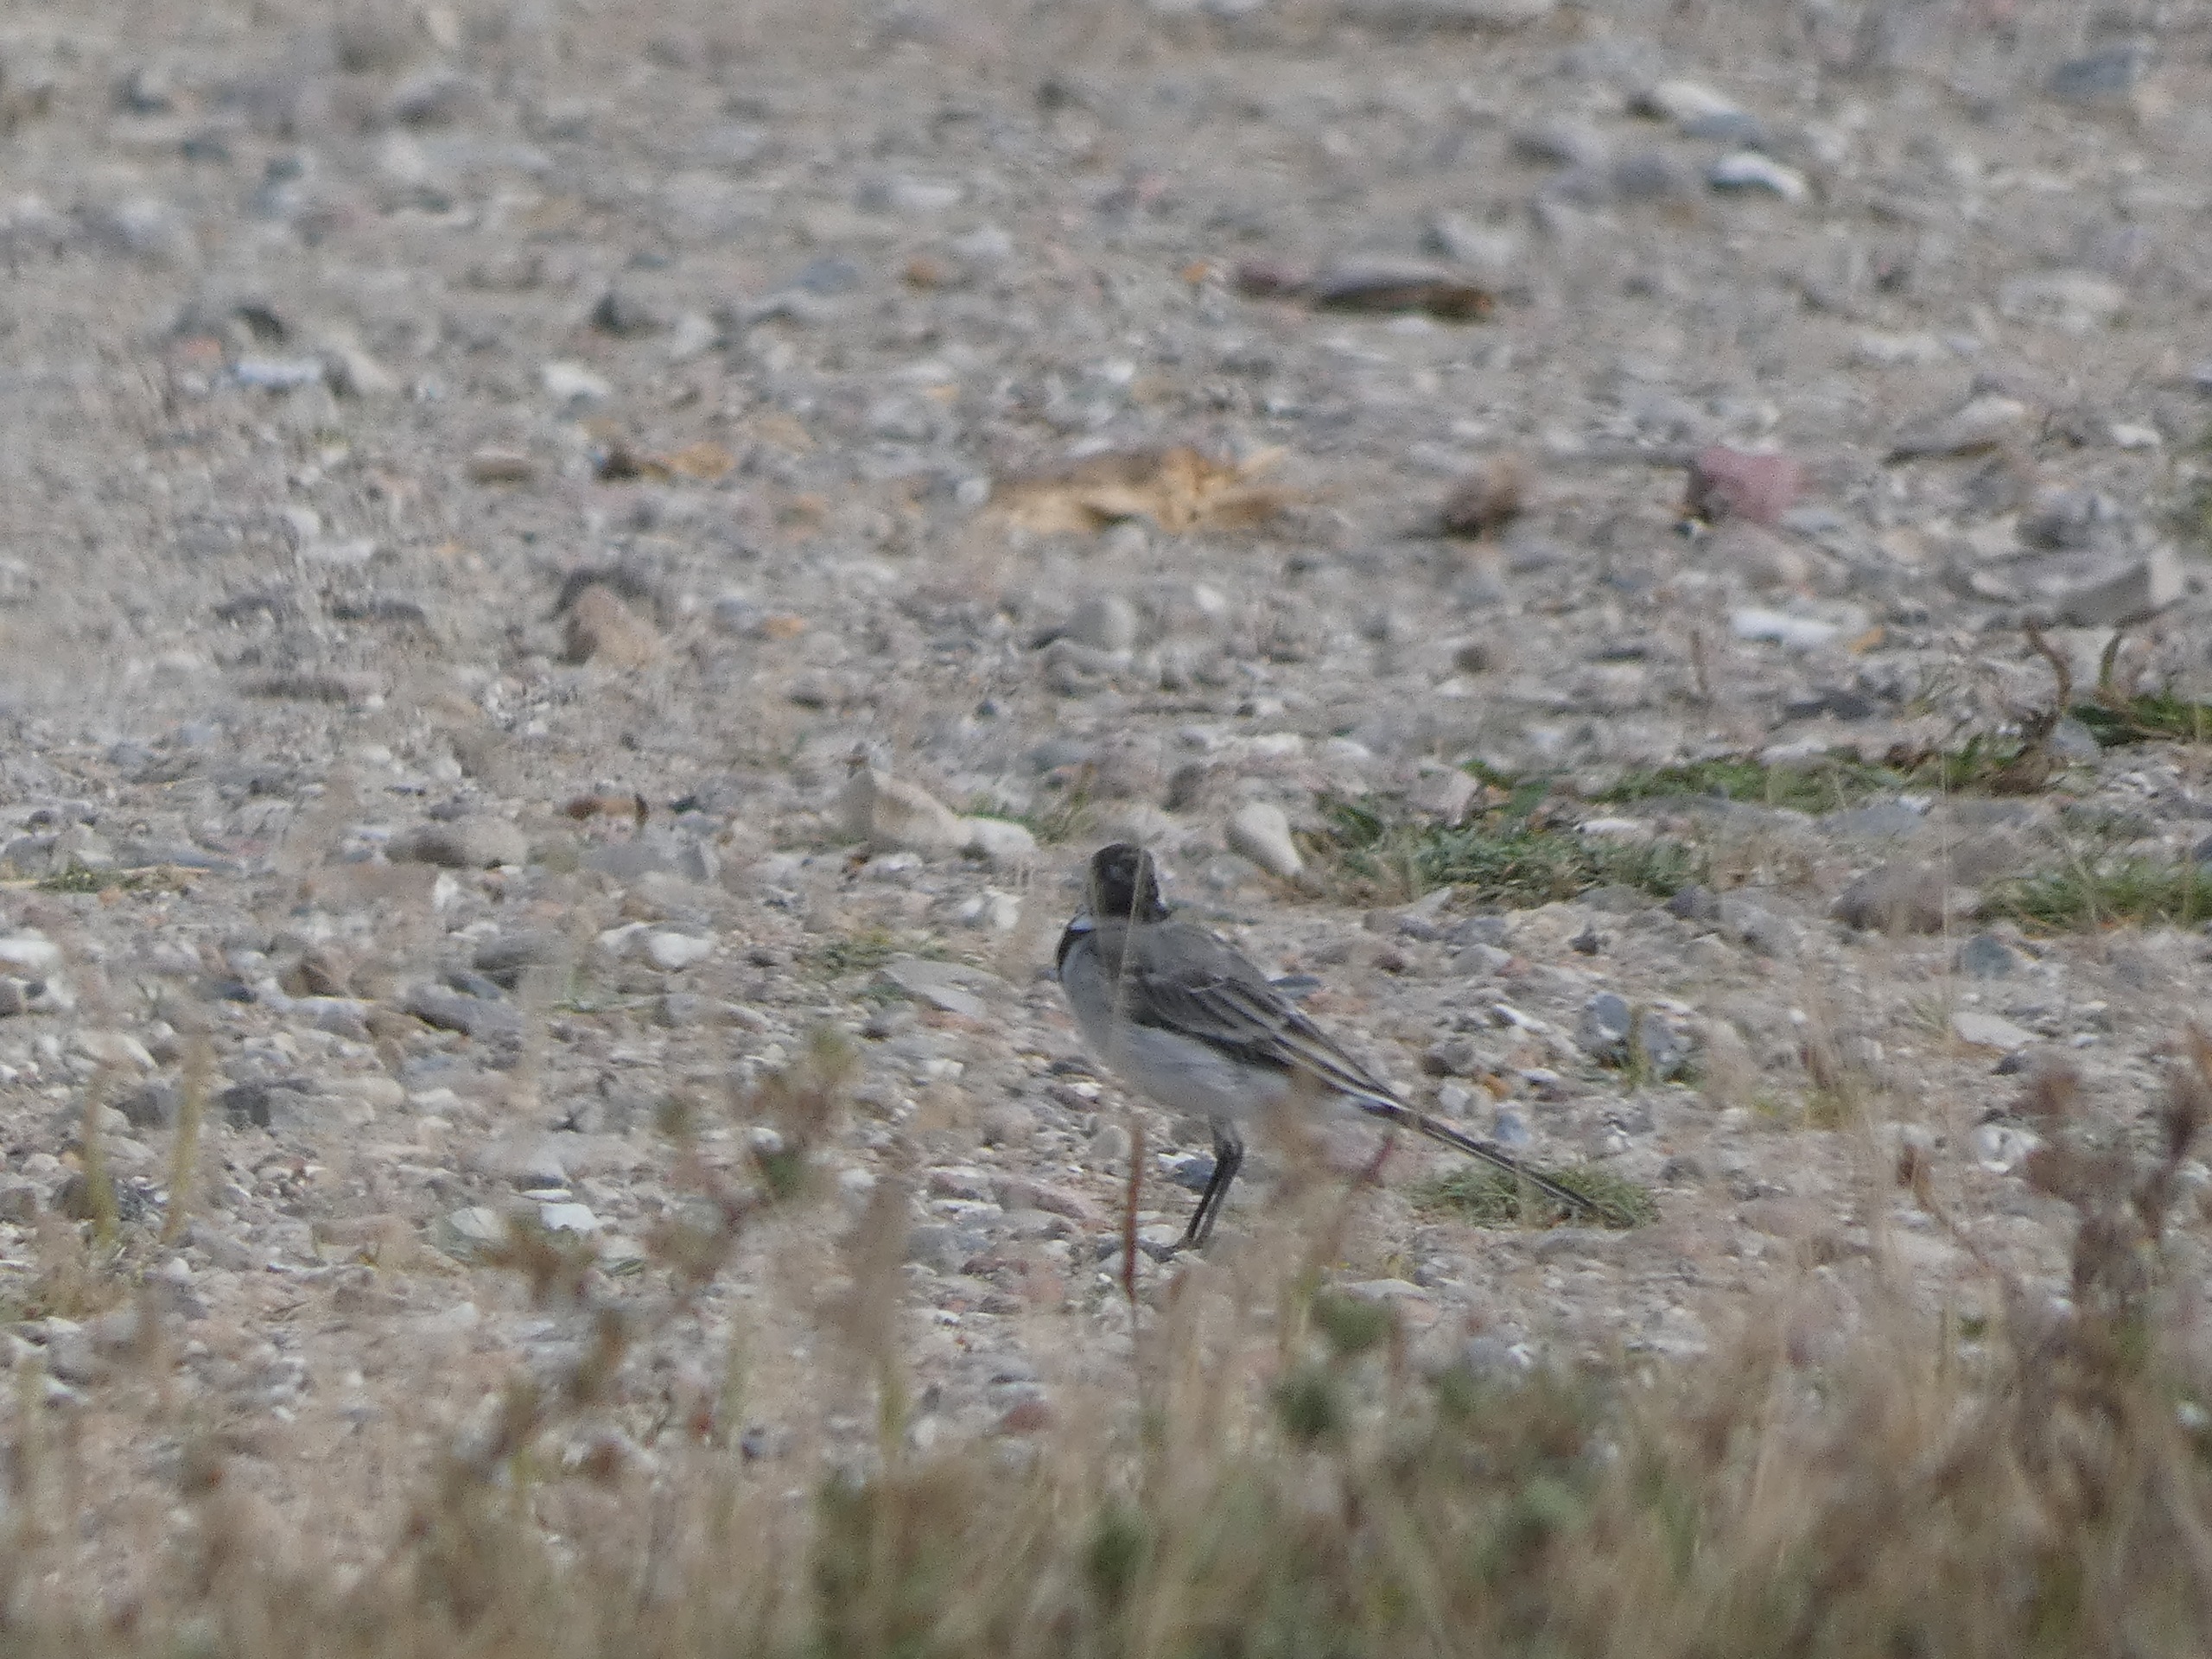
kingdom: Animalia
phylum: Chordata
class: Aves
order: Passeriformes
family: Motacillidae
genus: Motacilla
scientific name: Motacilla alba
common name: Hvid vipstjert
